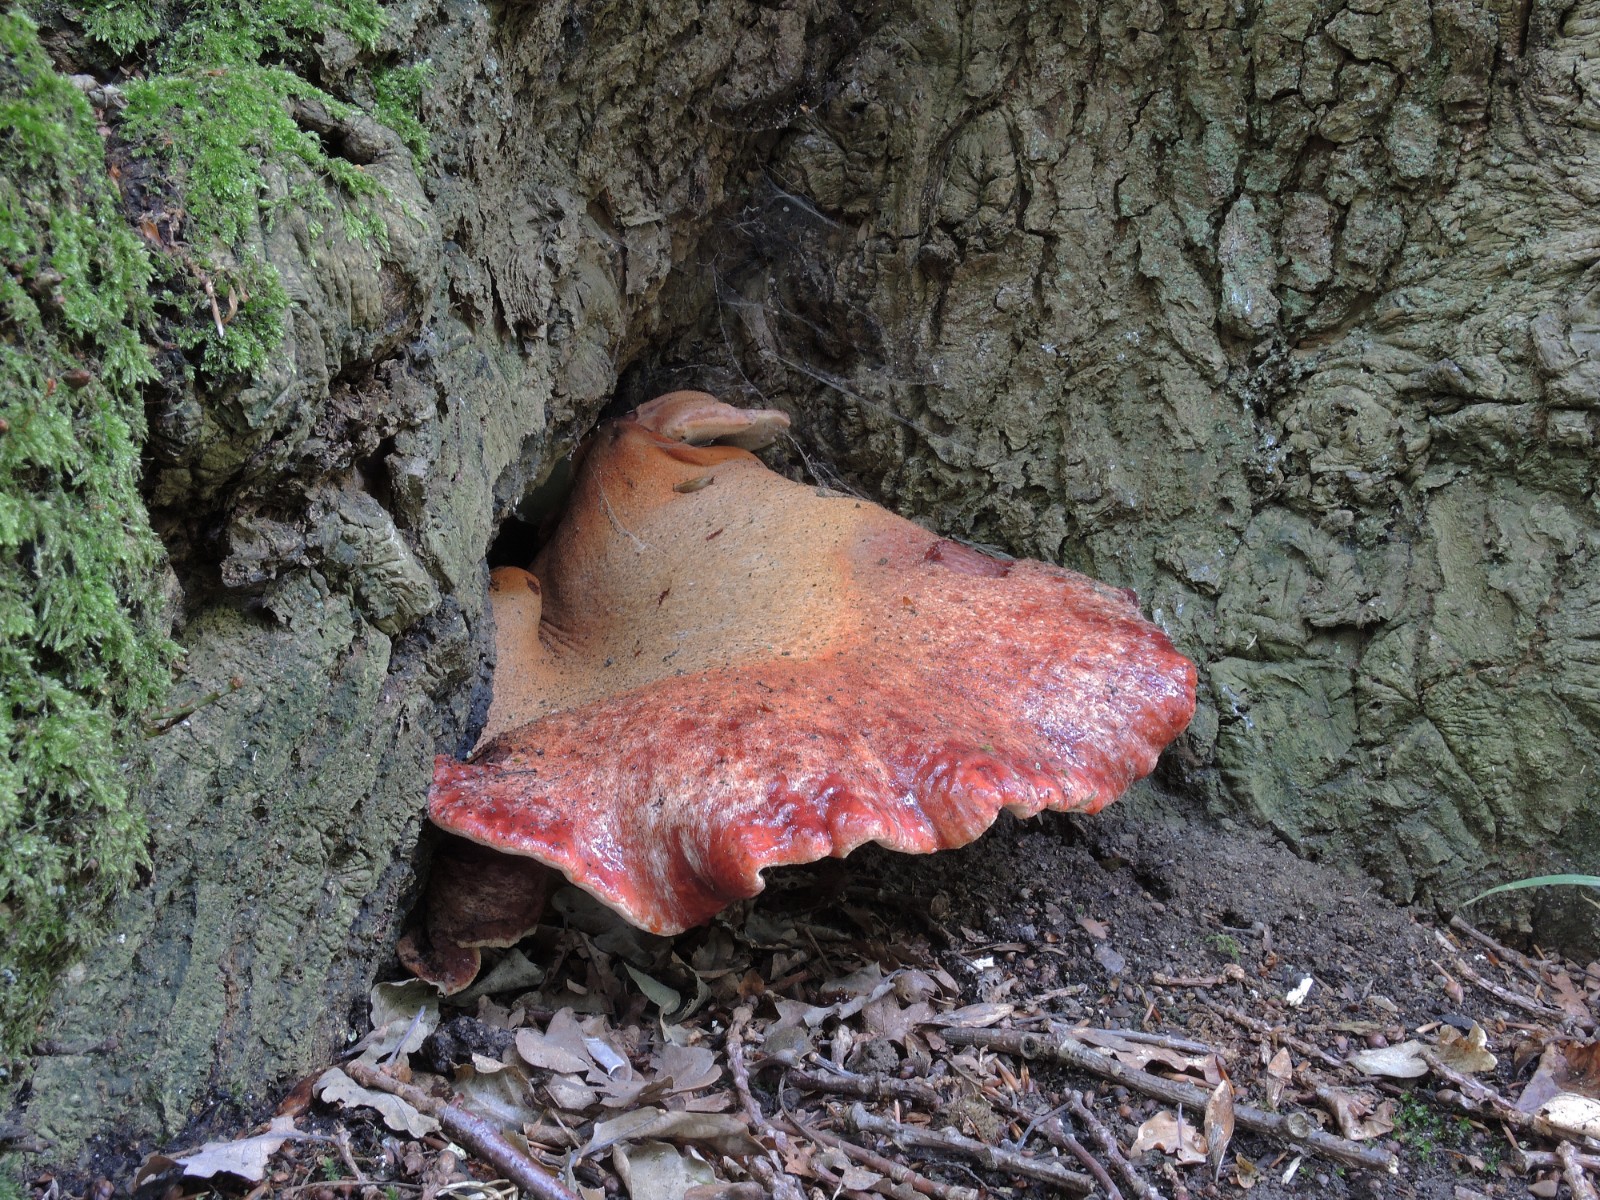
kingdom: Fungi
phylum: Basidiomycota
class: Agaricomycetes
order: Agaricales
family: Fistulinaceae
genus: Fistulina
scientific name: Fistulina hepatica
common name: oksetunge
